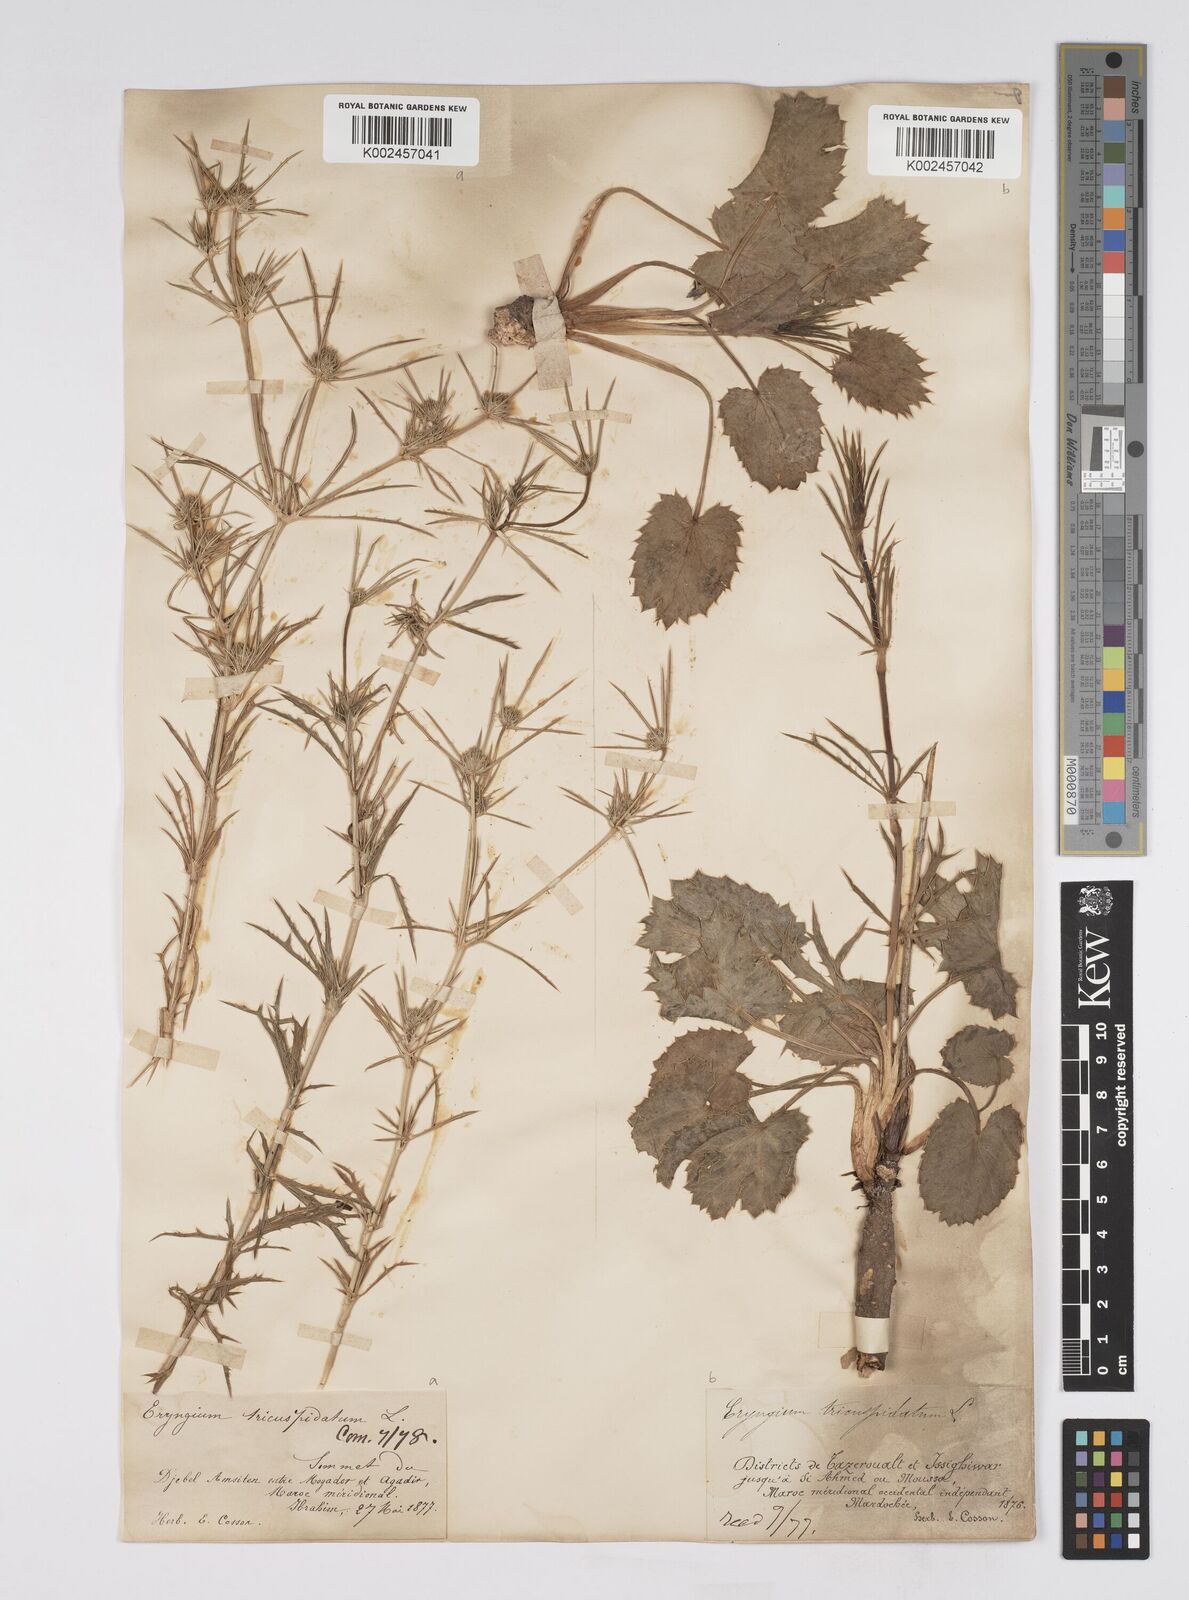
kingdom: Plantae
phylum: Tracheophyta
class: Magnoliopsida
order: Apiales
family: Apiaceae
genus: Eryngium
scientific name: Eryngium tricuspidatum
